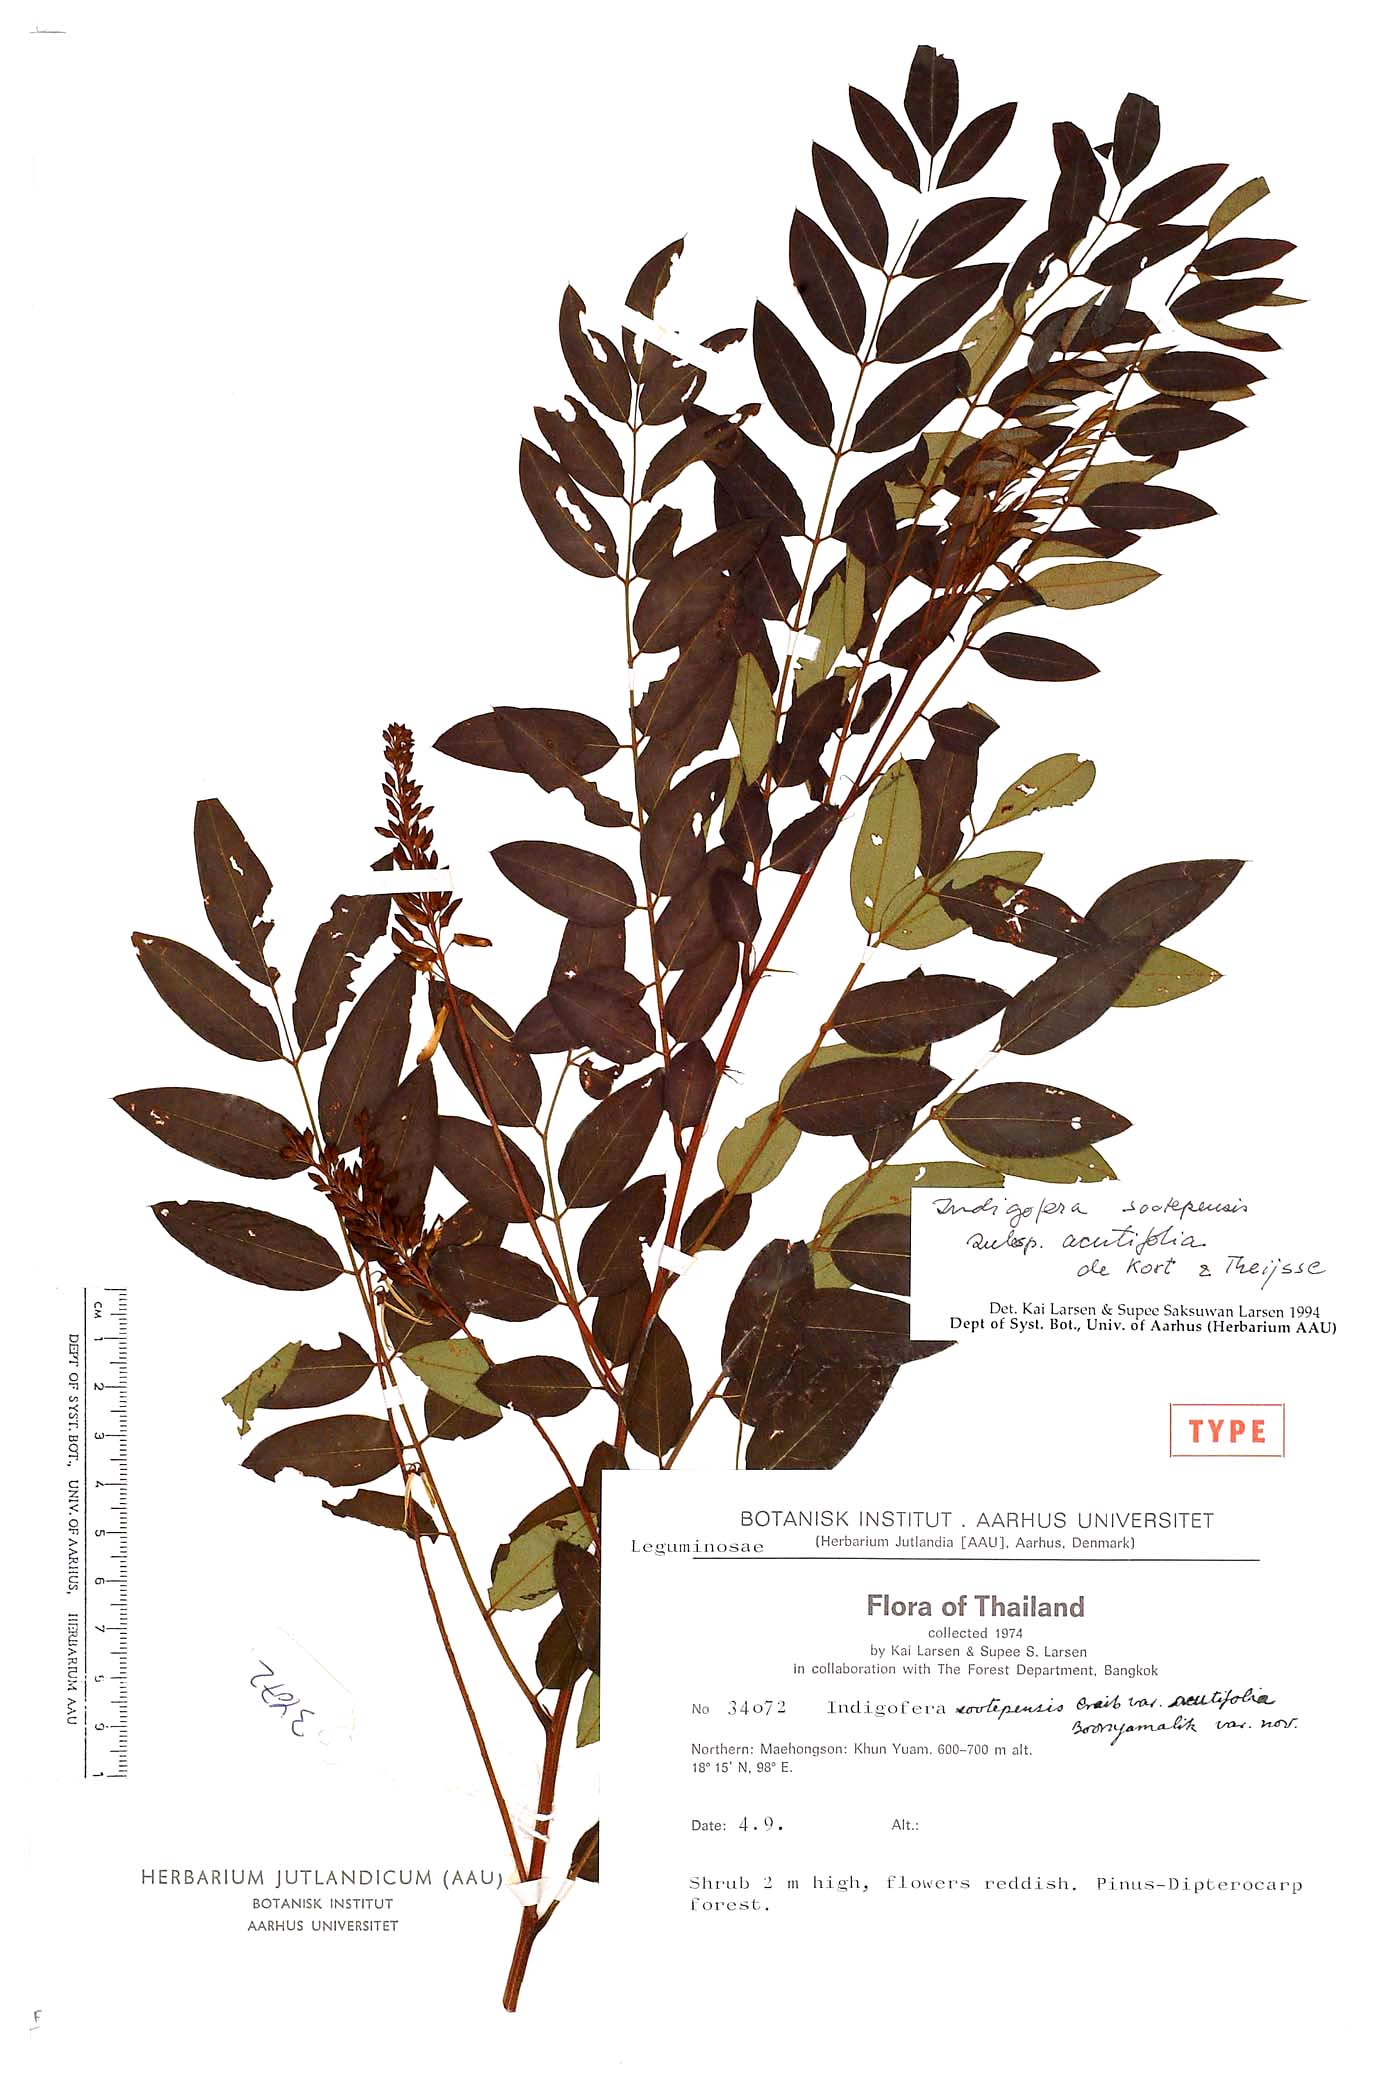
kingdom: Plantae
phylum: Tracheophyta
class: Magnoliopsida
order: Fabales
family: Fabaceae
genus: Indigofera
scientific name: Indigofera sootepensis
